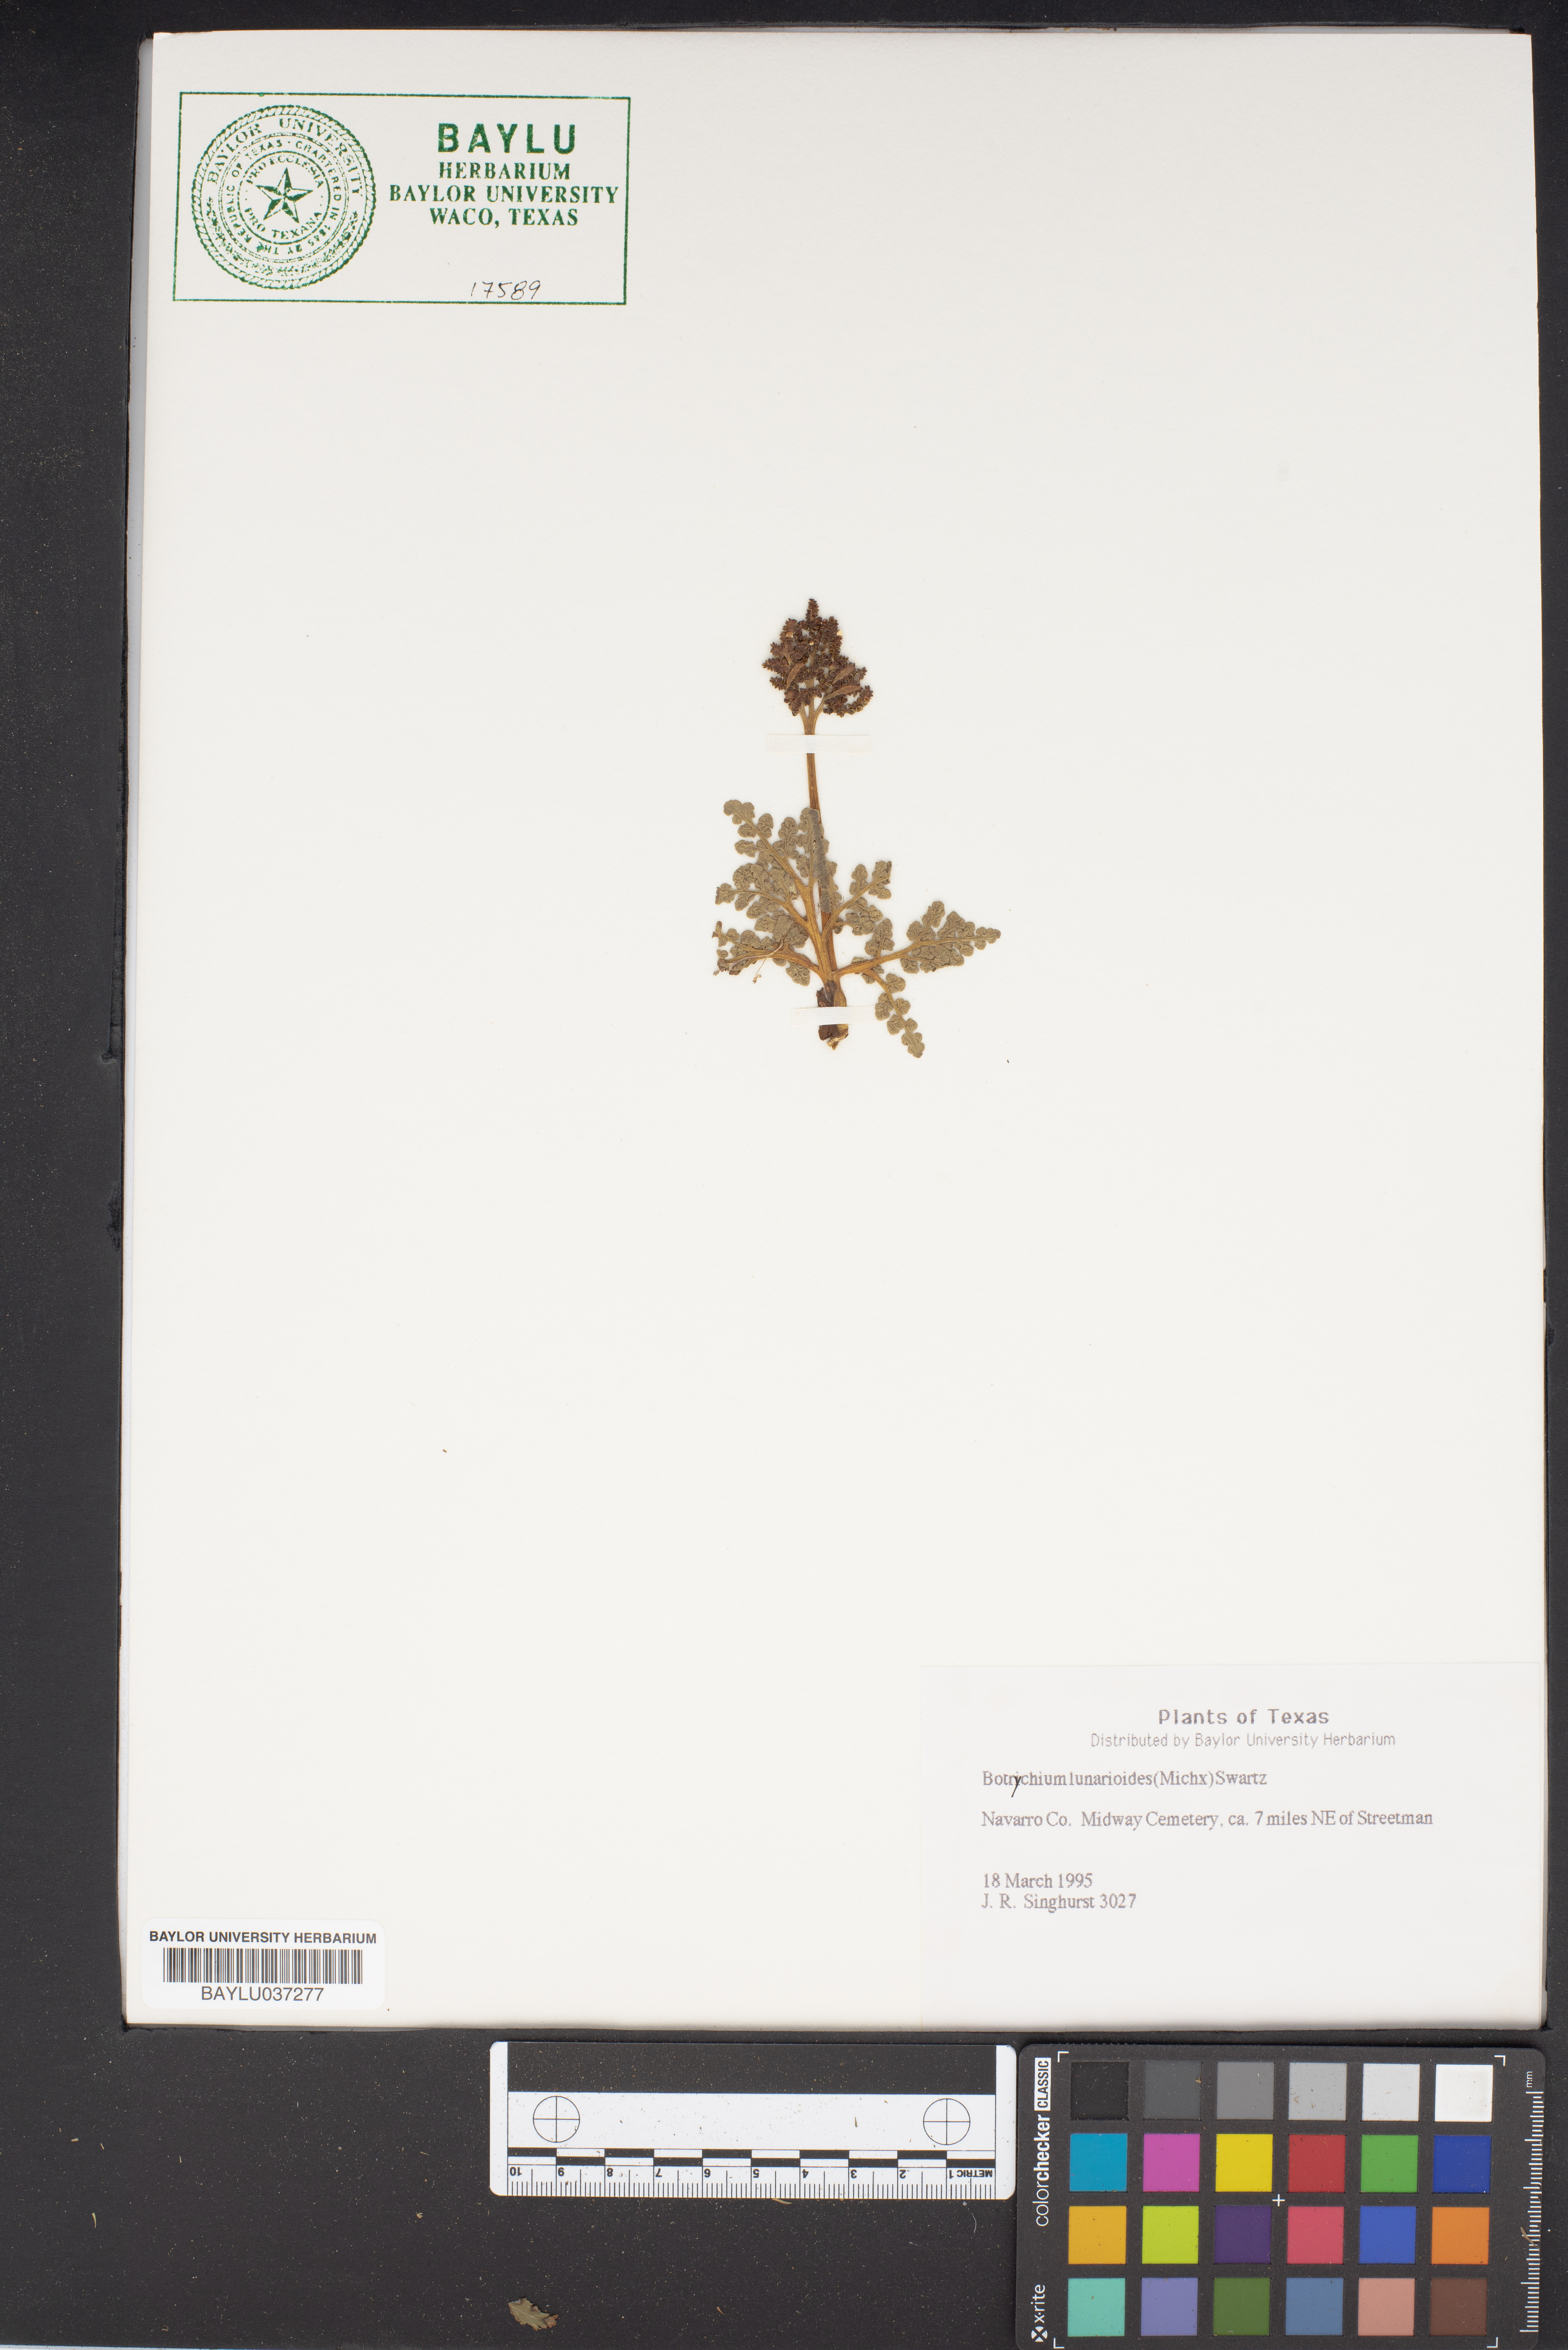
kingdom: Plantae
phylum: Tracheophyta
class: Polypodiopsida
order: Ophioglossales
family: Ophioglossaceae
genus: Sceptridium
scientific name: Sceptridium lunarioides
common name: Prostrate grapefern
